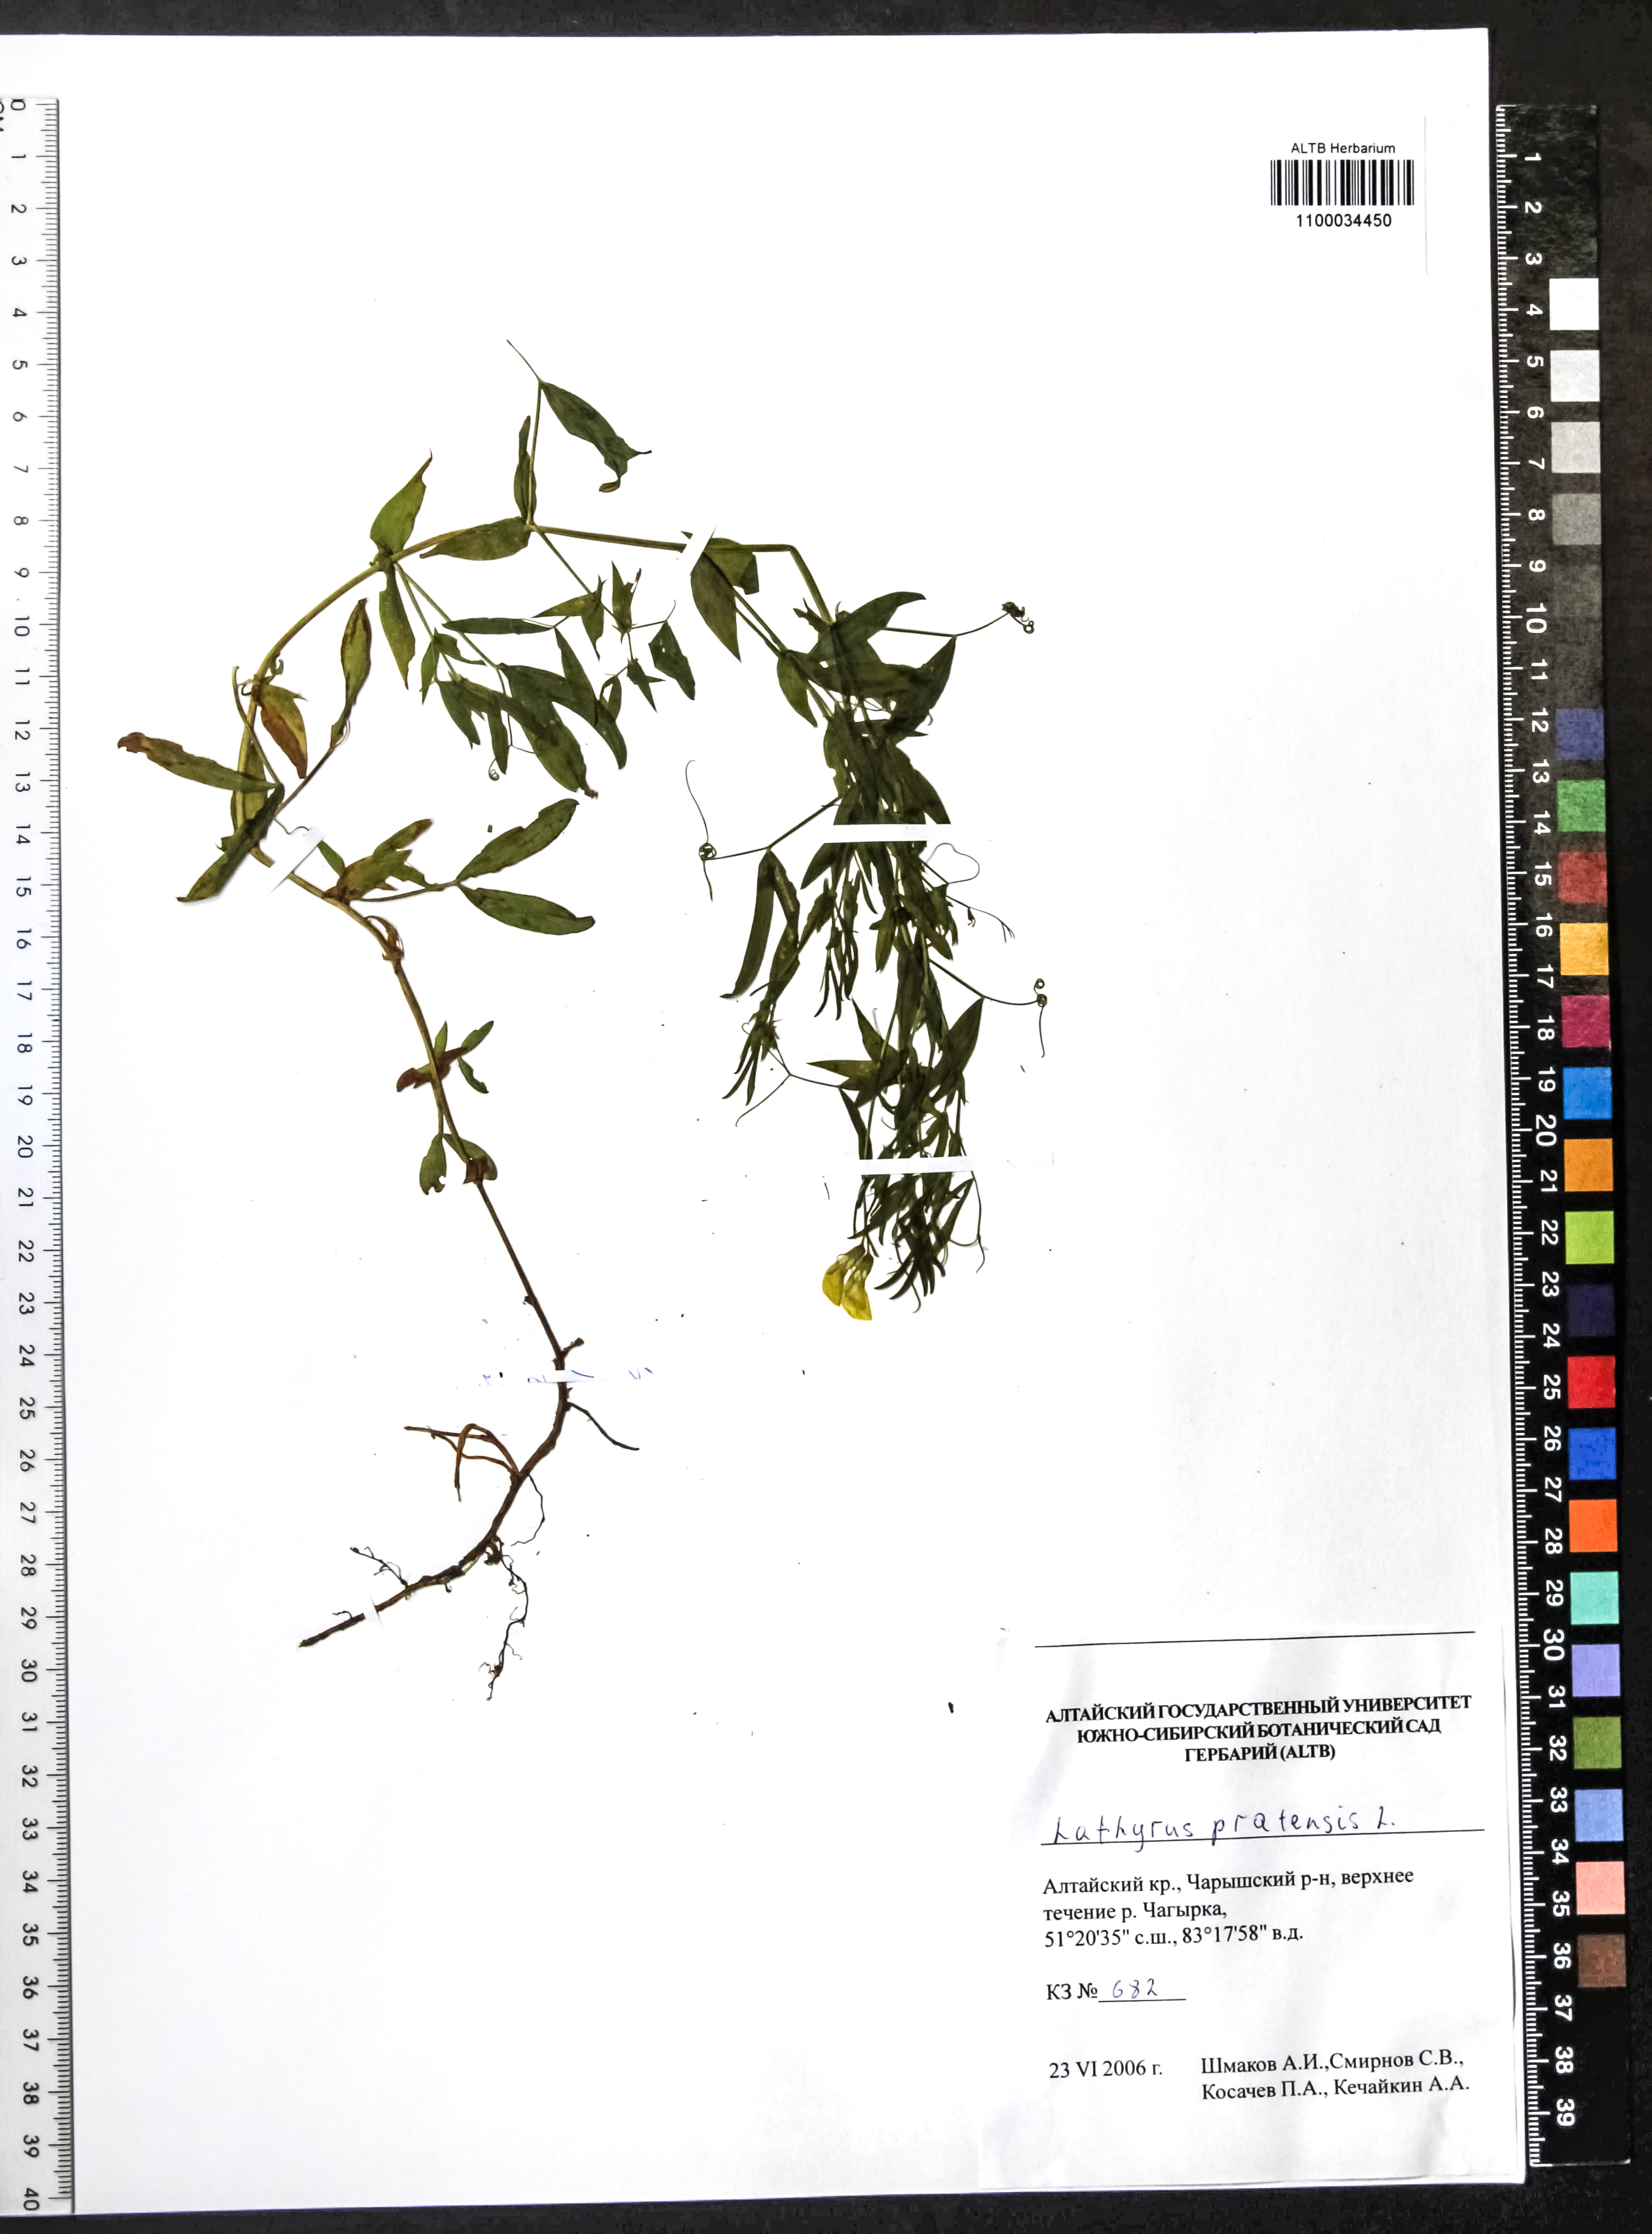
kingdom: Plantae
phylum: Tracheophyta
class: Magnoliopsida
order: Fabales
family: Fabaceae
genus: Lathyrus
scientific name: Lathyrus pratensis
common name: Meadow vetchling
